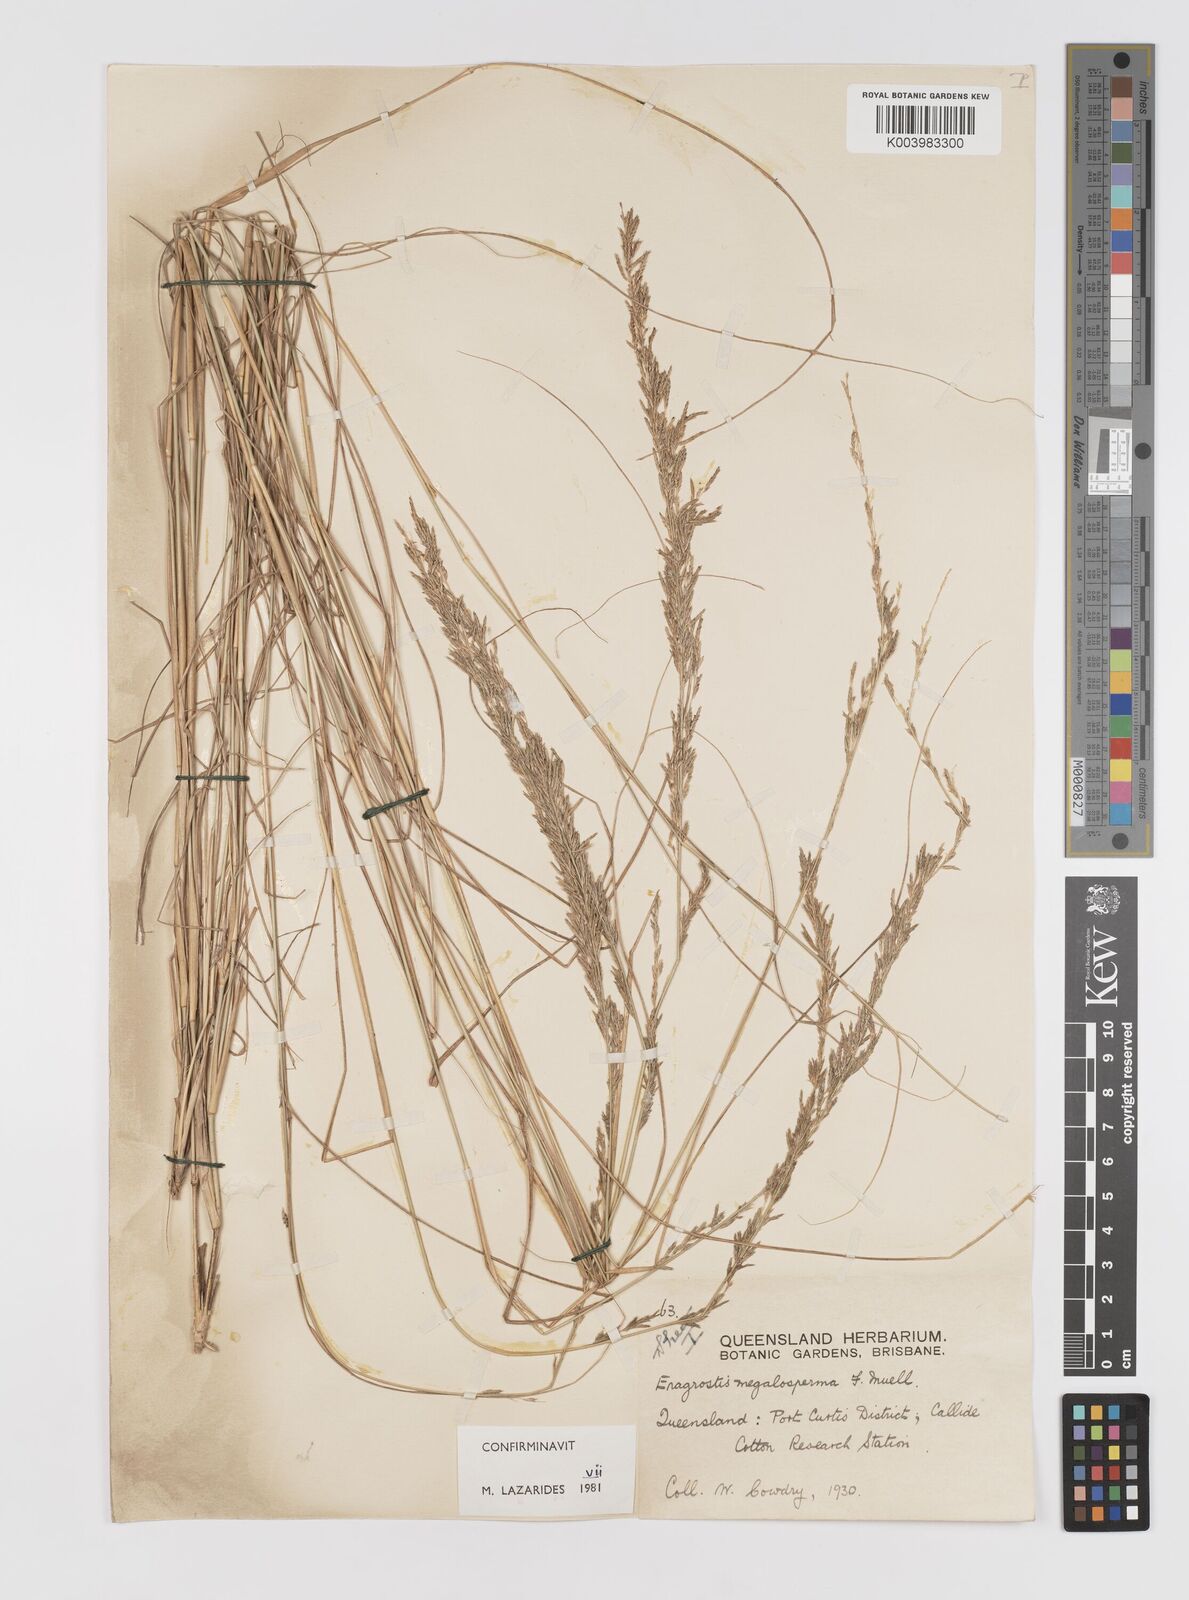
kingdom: Plantae
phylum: Tracheophyta
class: Liliopsida
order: Poales
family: Poaceae
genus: Sporobolus
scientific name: Sporobolus megalospermus
